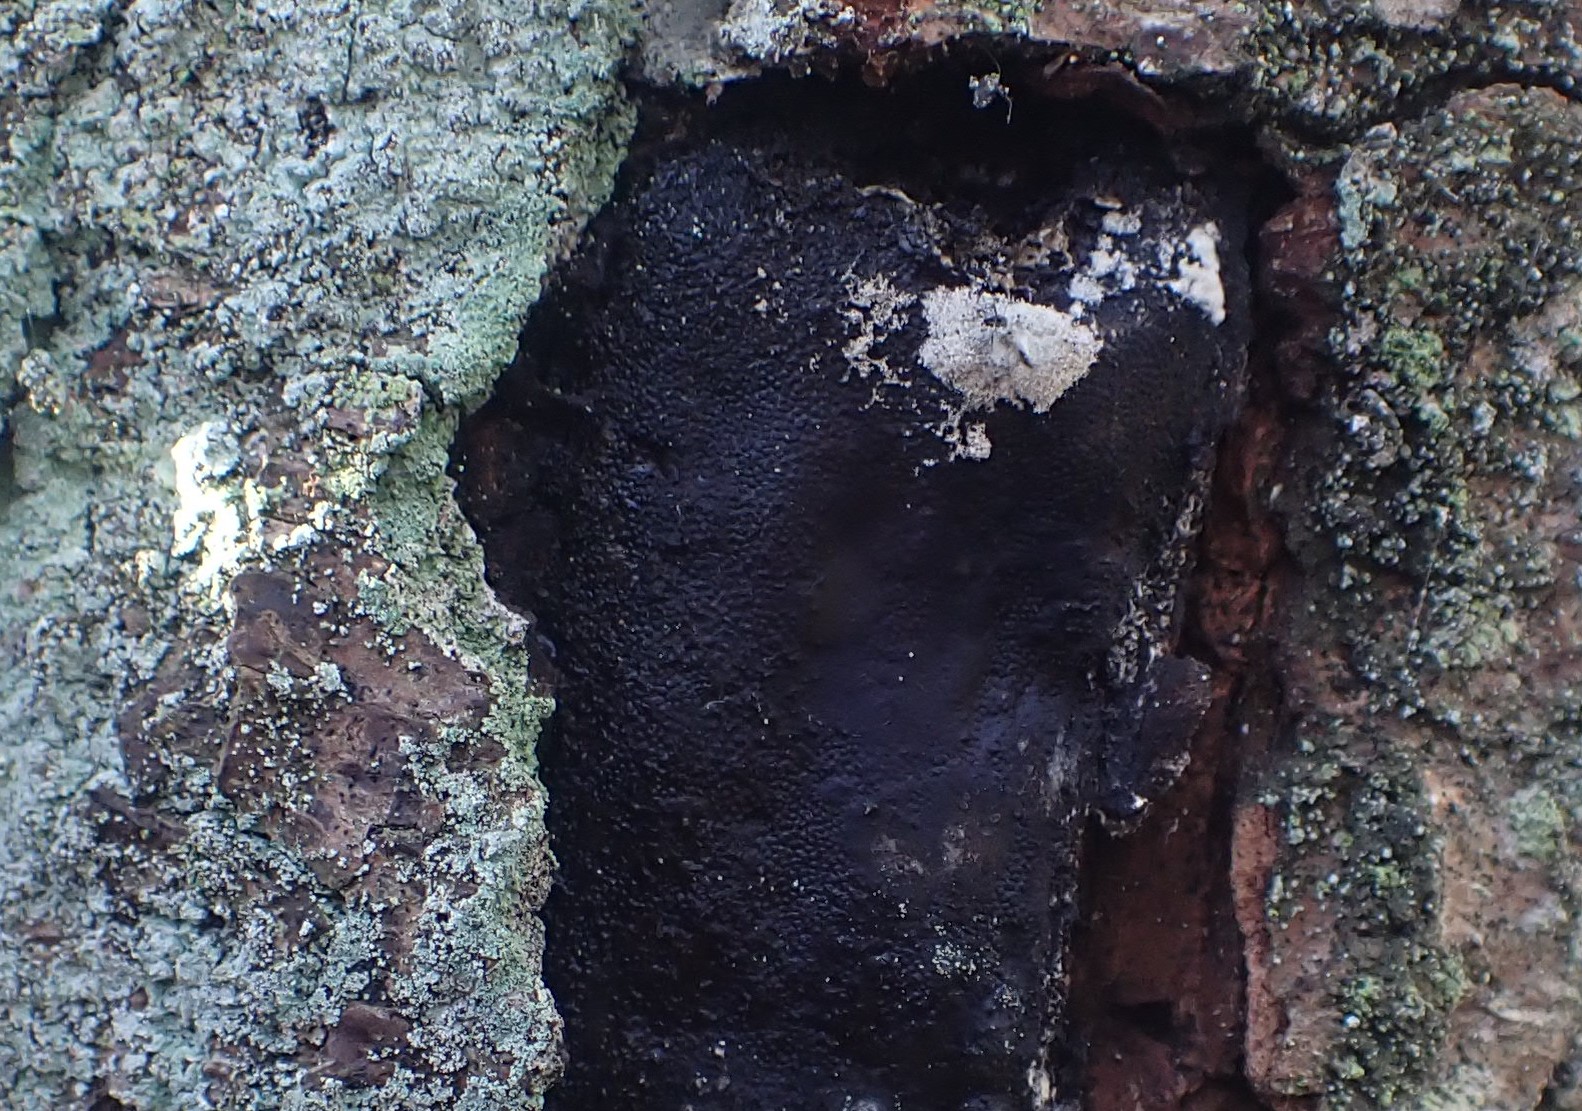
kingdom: Fungi
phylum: Ascomycota
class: Sordariomycetes
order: Boliniales
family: Boliniaceae
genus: Camarops
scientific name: Camarops polysperma
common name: elle-kulsnegl
